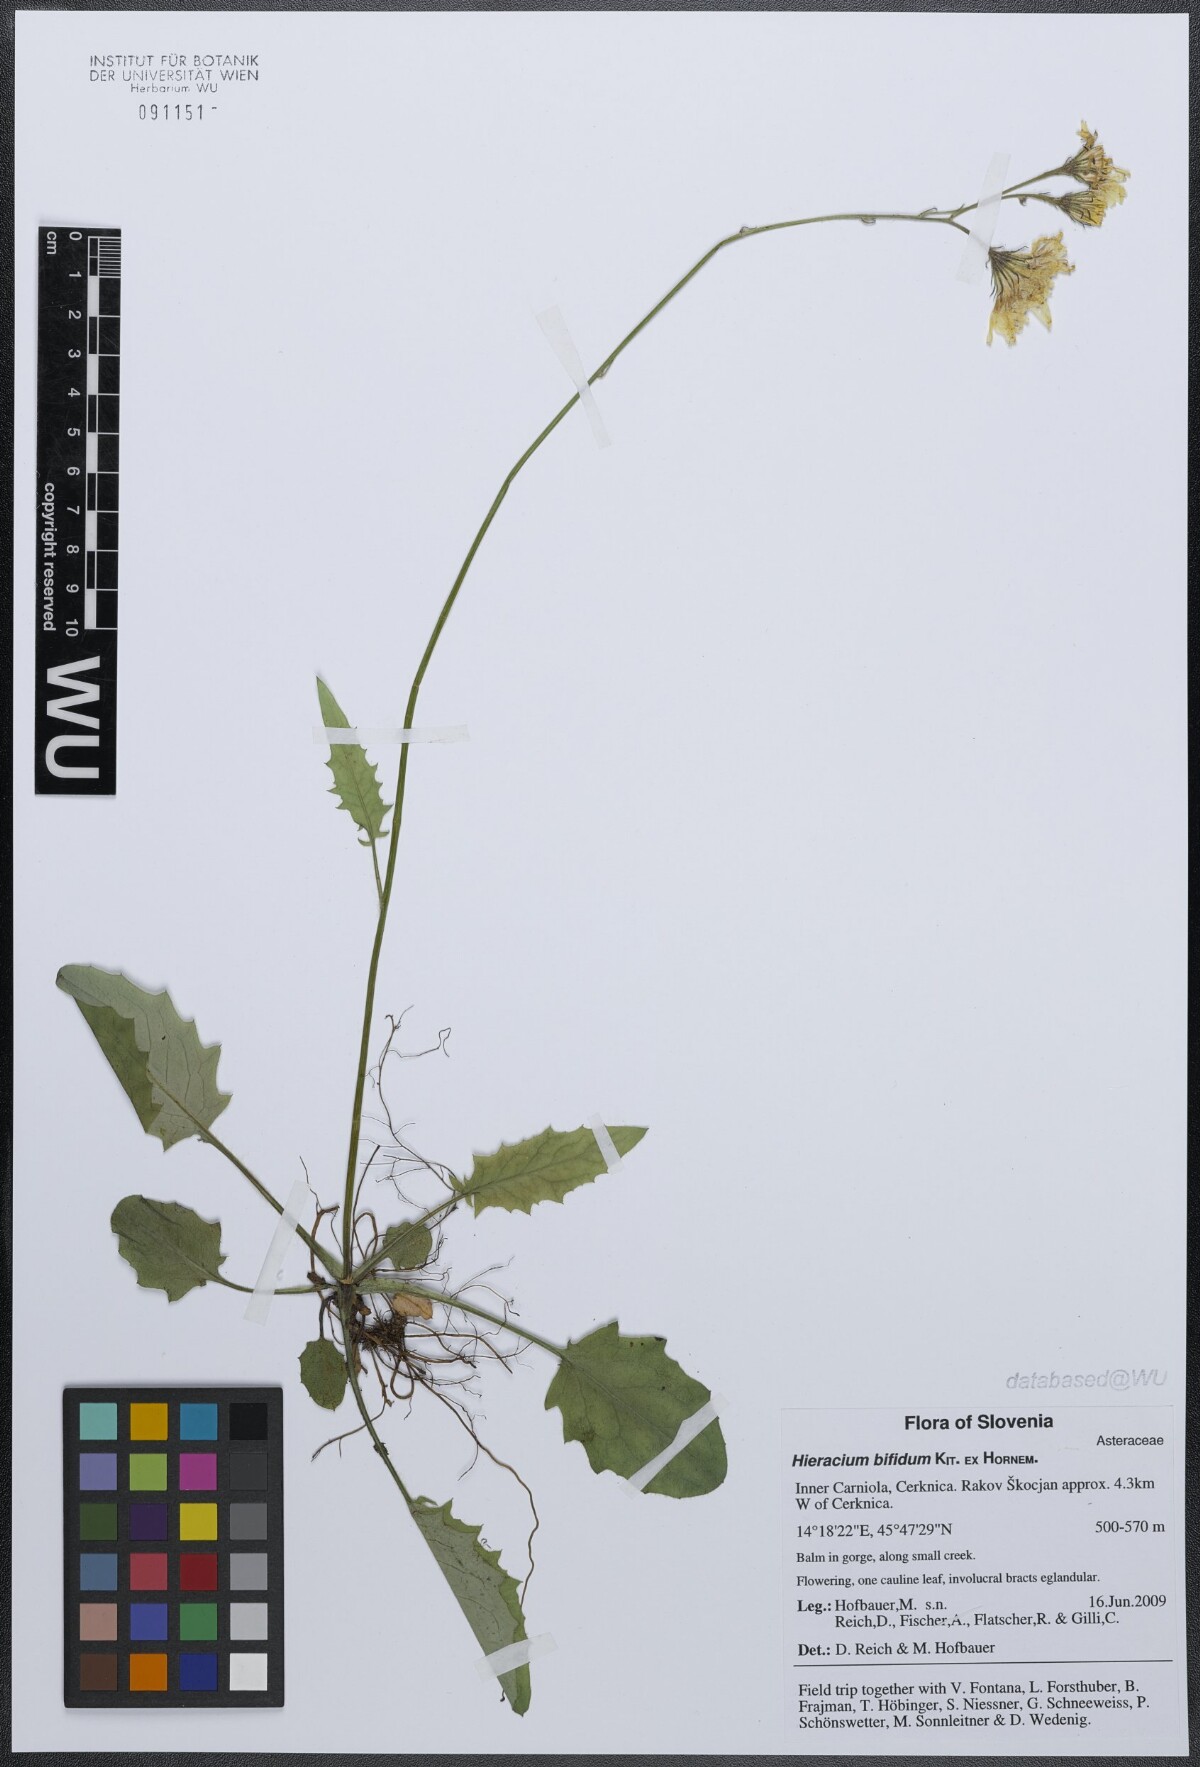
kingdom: Plantae
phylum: Tracheophyta
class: Magnoliopsida
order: Asterales
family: Asteraceae
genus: Hieracium
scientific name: Hieracium bifidum
